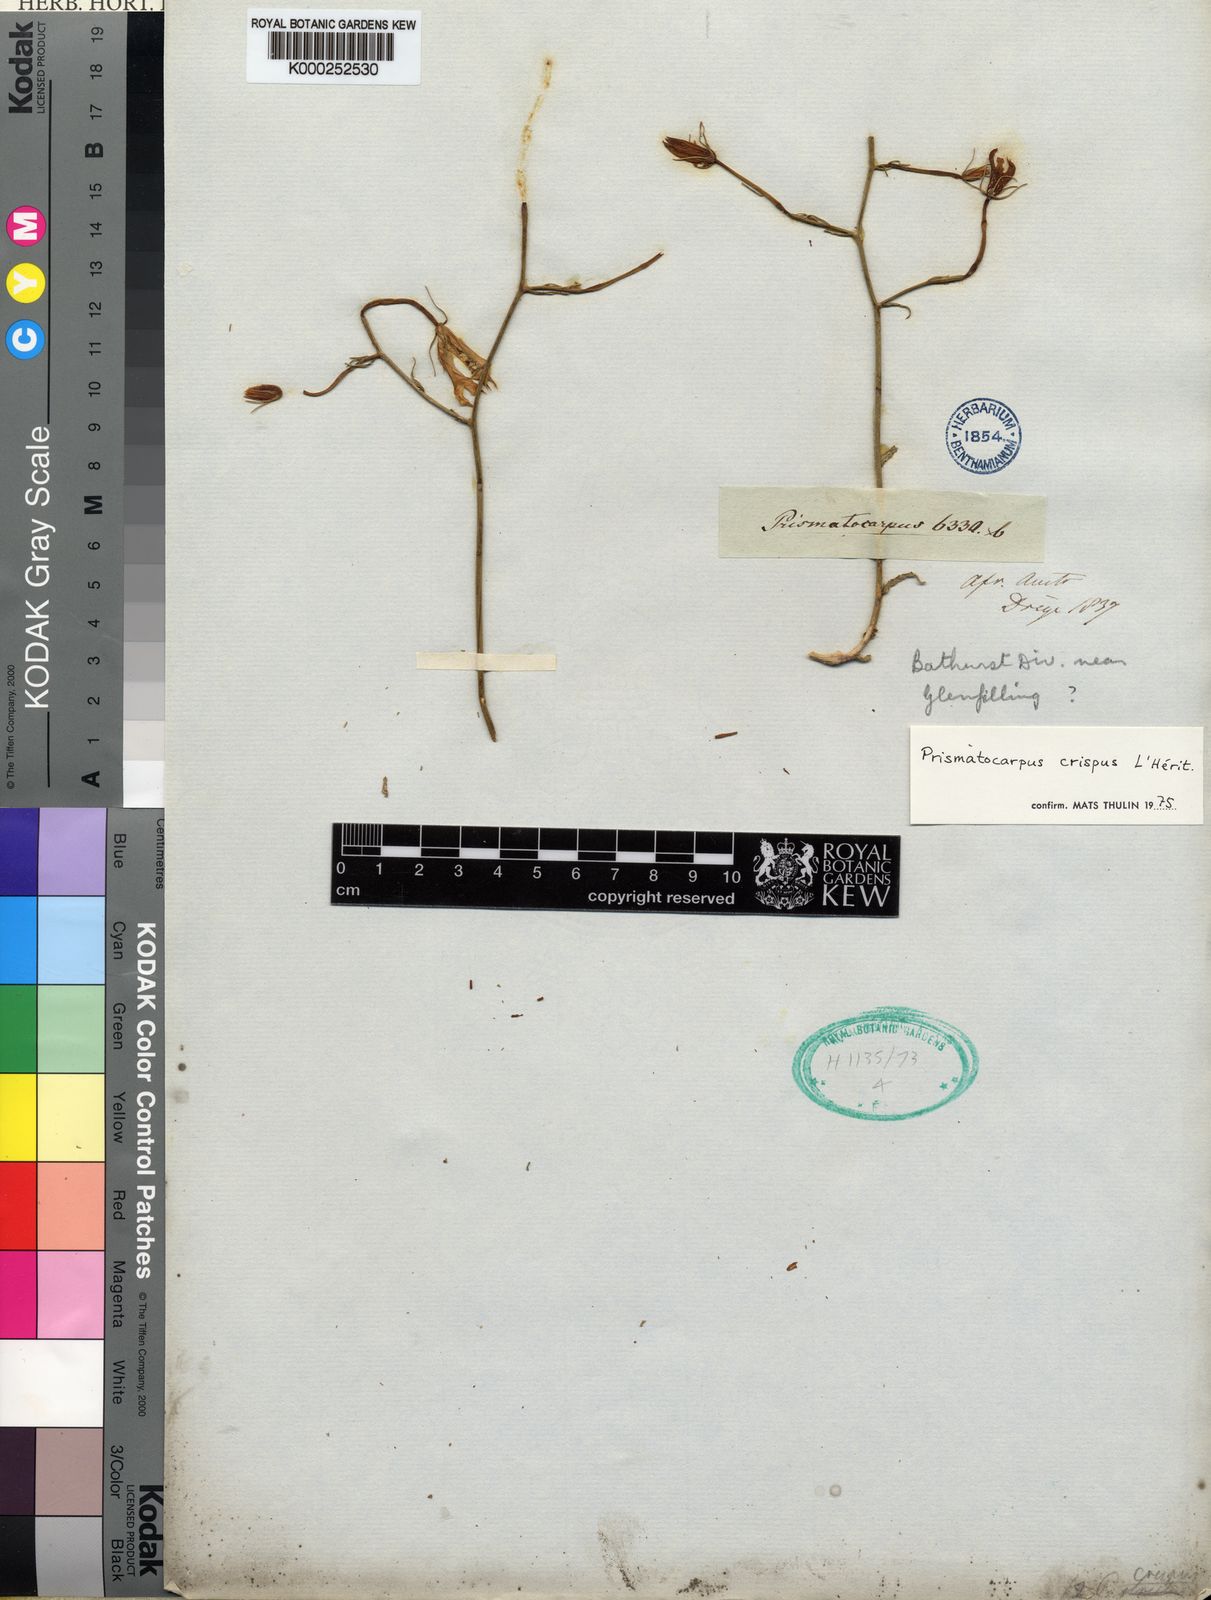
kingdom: Plantae
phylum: Tracheophyta
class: Magnoliopsida
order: Asterales
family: Campanulaceae
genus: Prismatocarpus
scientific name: Prismatocarpus
